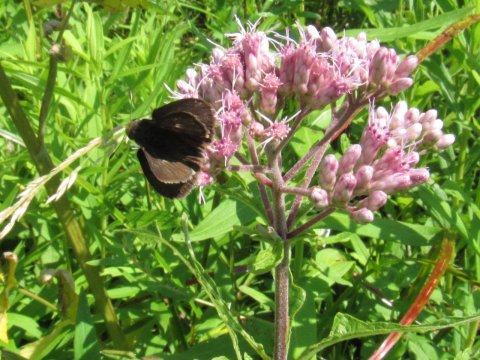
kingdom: Animalia
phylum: Arthropoda
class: Insecta
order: Lepidoptera
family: Hesperiidae
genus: Euphyes
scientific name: Euphyes vestris
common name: Dun Skipper
